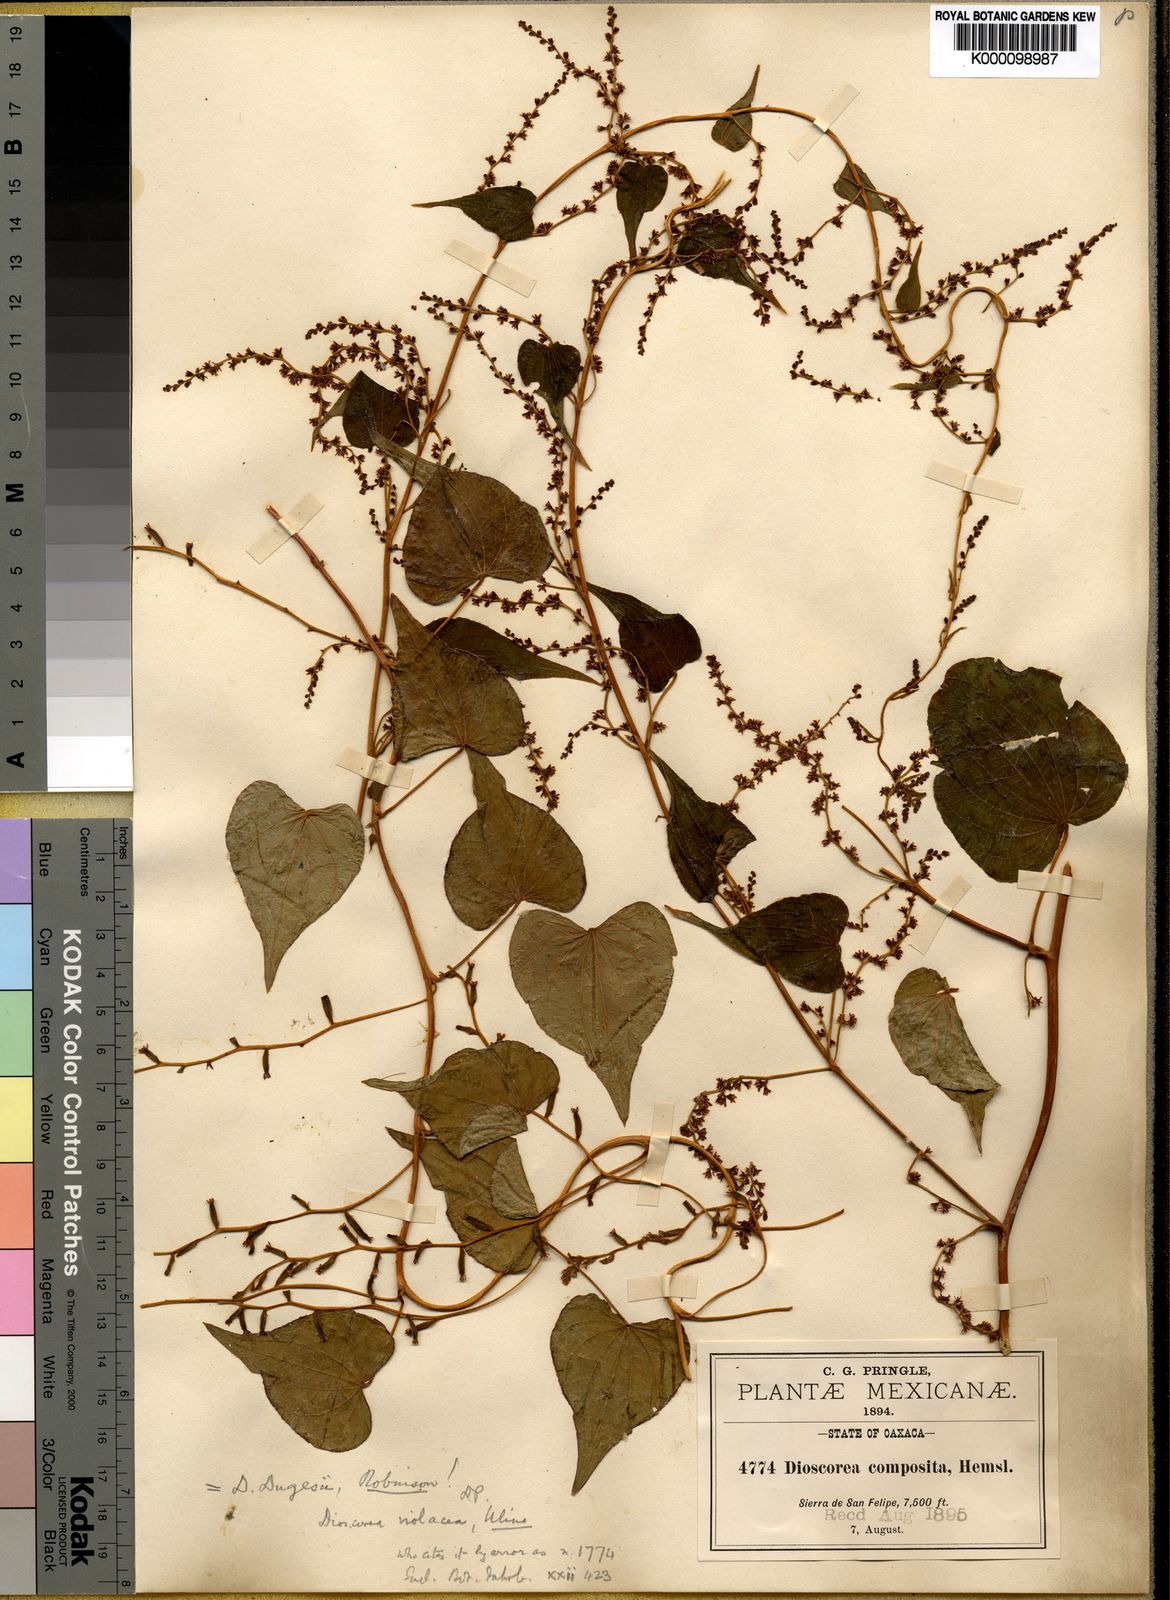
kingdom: Plantae
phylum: Tracheophyta
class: Liliopsida
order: Dioscoreales
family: Dioscoreaceae
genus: Dioscorea
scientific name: Dioscorea dugesii
